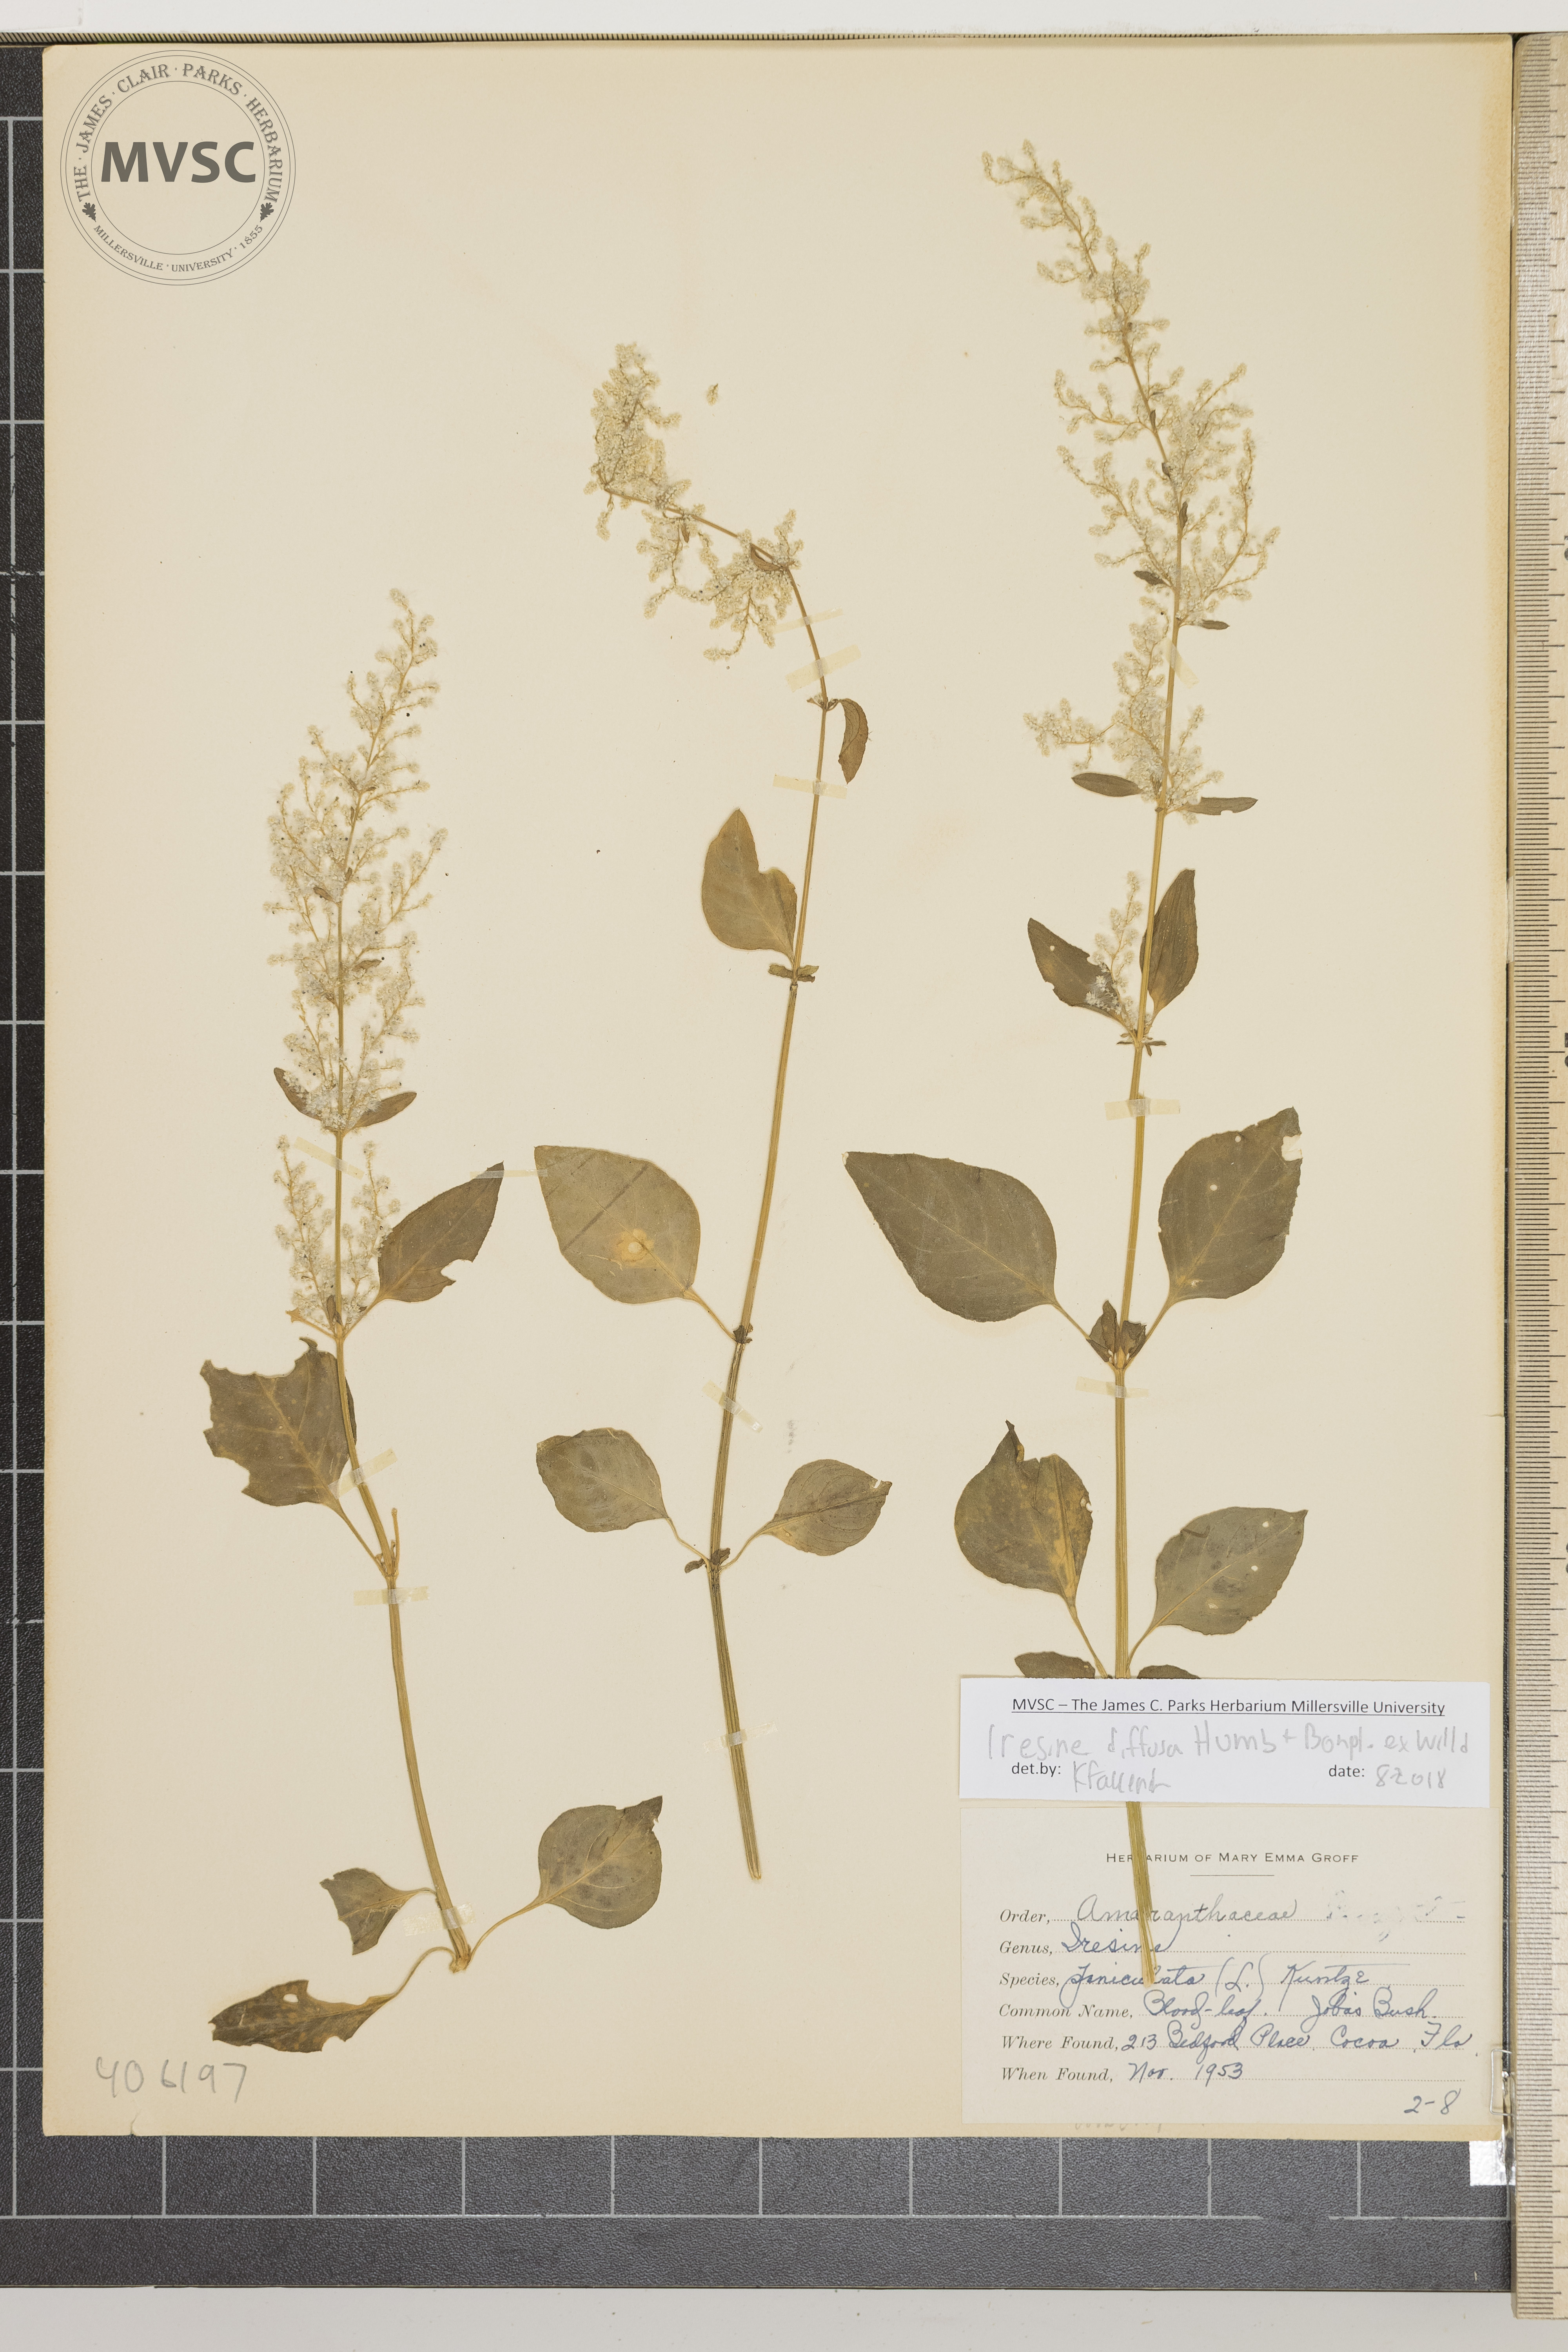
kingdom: Plantae
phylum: Tracheophyta
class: Magnoliopsida
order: Caryophyllales
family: Amaranthaceae
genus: Iresine
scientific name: Iresine diffusa
